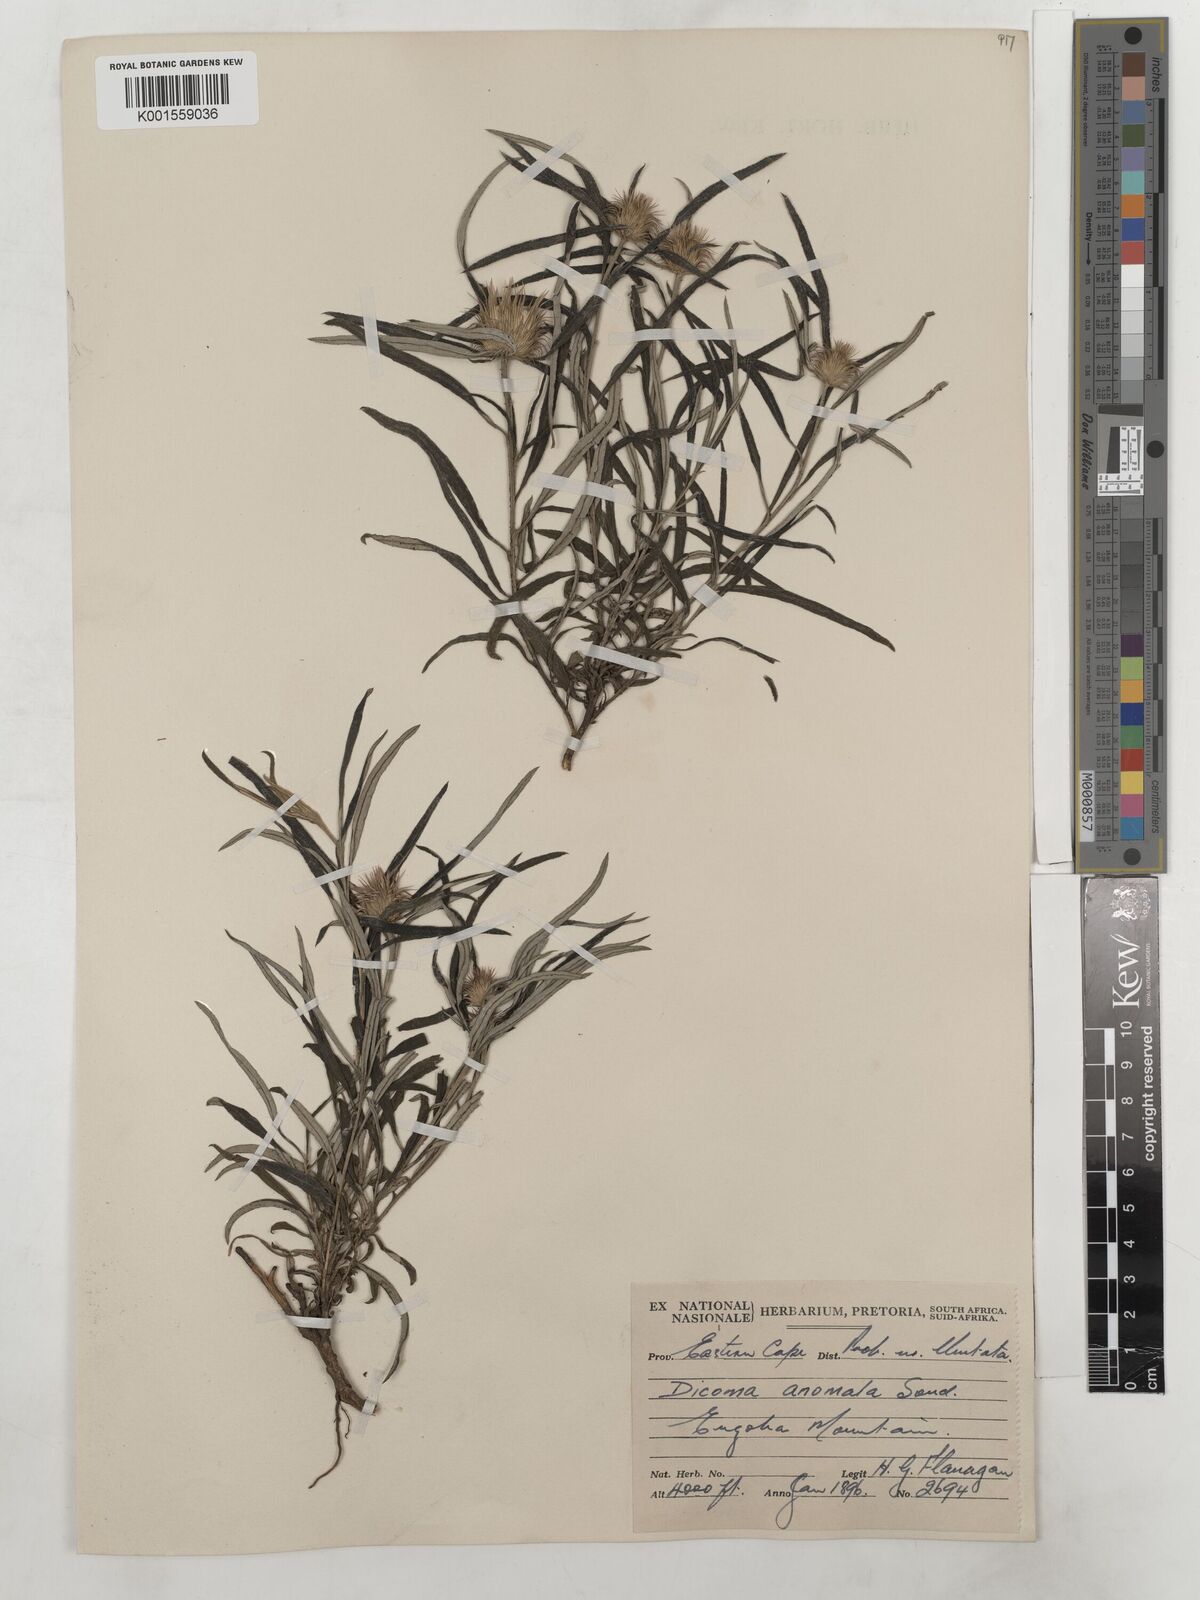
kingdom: Plantae
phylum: Tracheophyta
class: Magnoliopsida
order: Asterales
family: Asteraceae
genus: Dicoma
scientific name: Dicoma anomala
